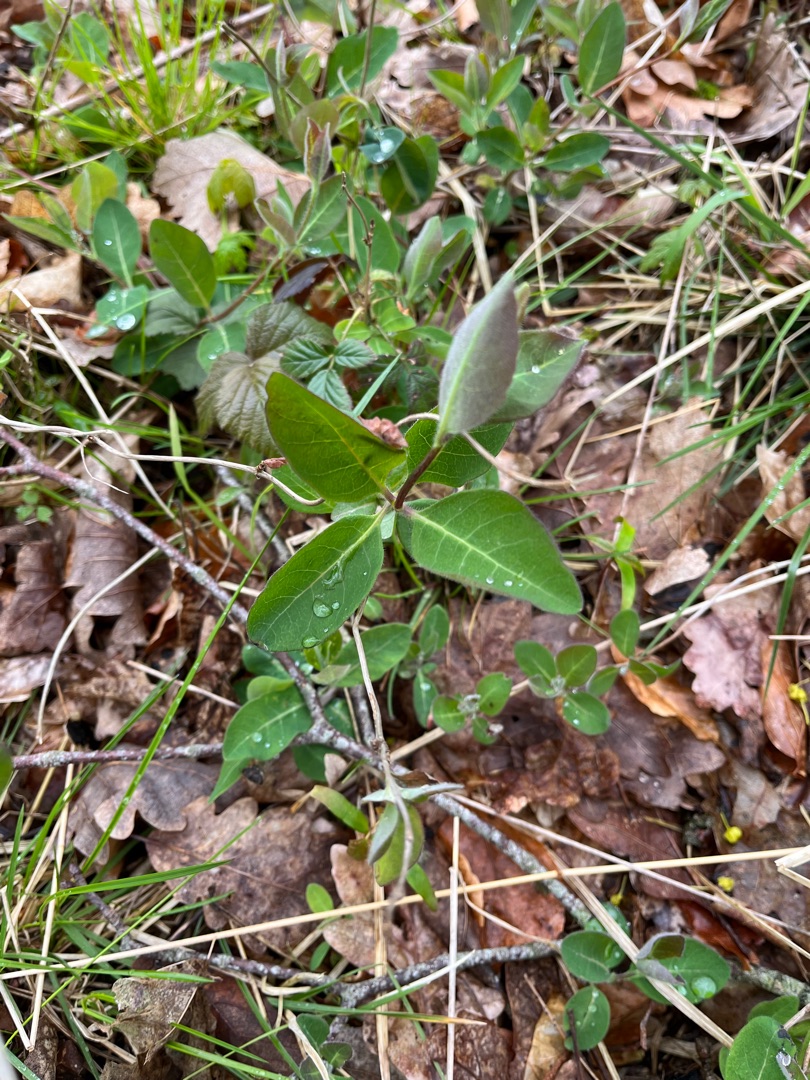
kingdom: Plantae
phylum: Tracheophyta
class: Magnoliopsida
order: Dipsacales
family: Caprifoliaceae
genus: Lonicera
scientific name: Lonicera periclymenum
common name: Almindelig gedeblad
